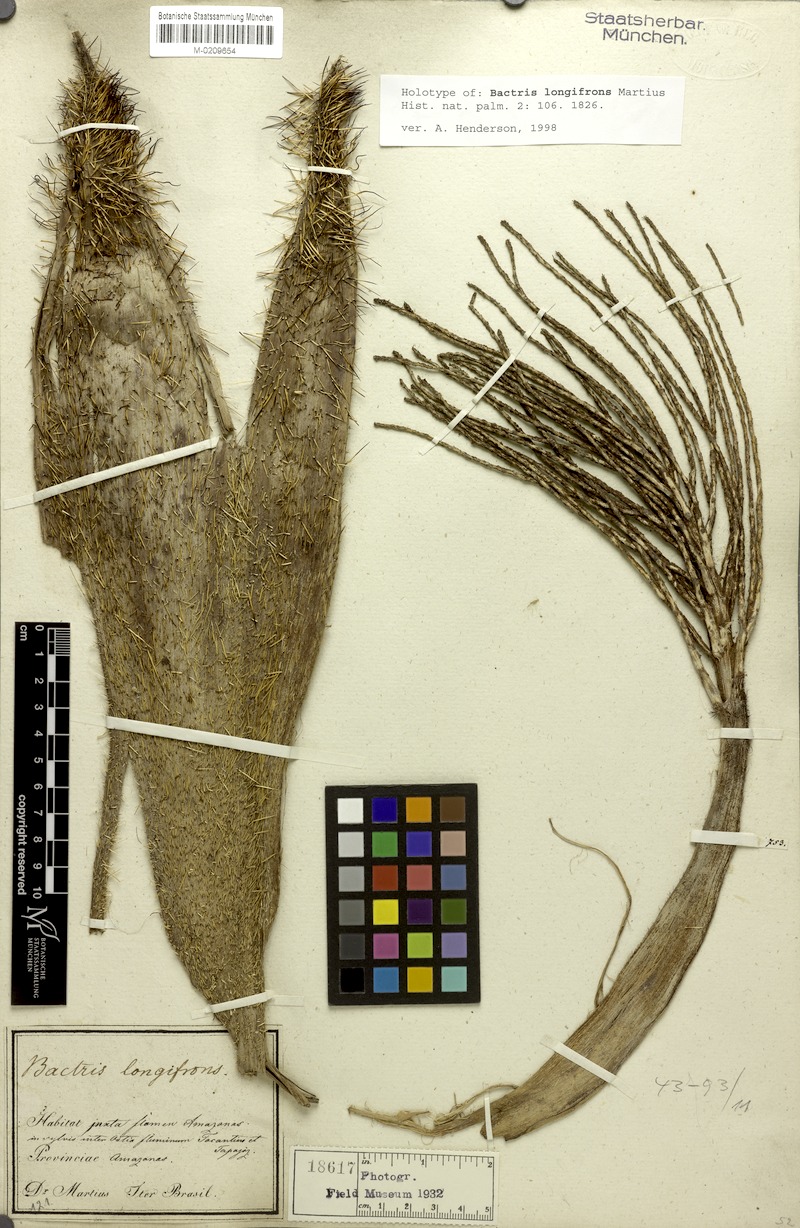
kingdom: Plantae
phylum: Tracheophyta
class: Liliopsida
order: Arecales
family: Arecaceae
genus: Bactris
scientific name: Bactris riparia
